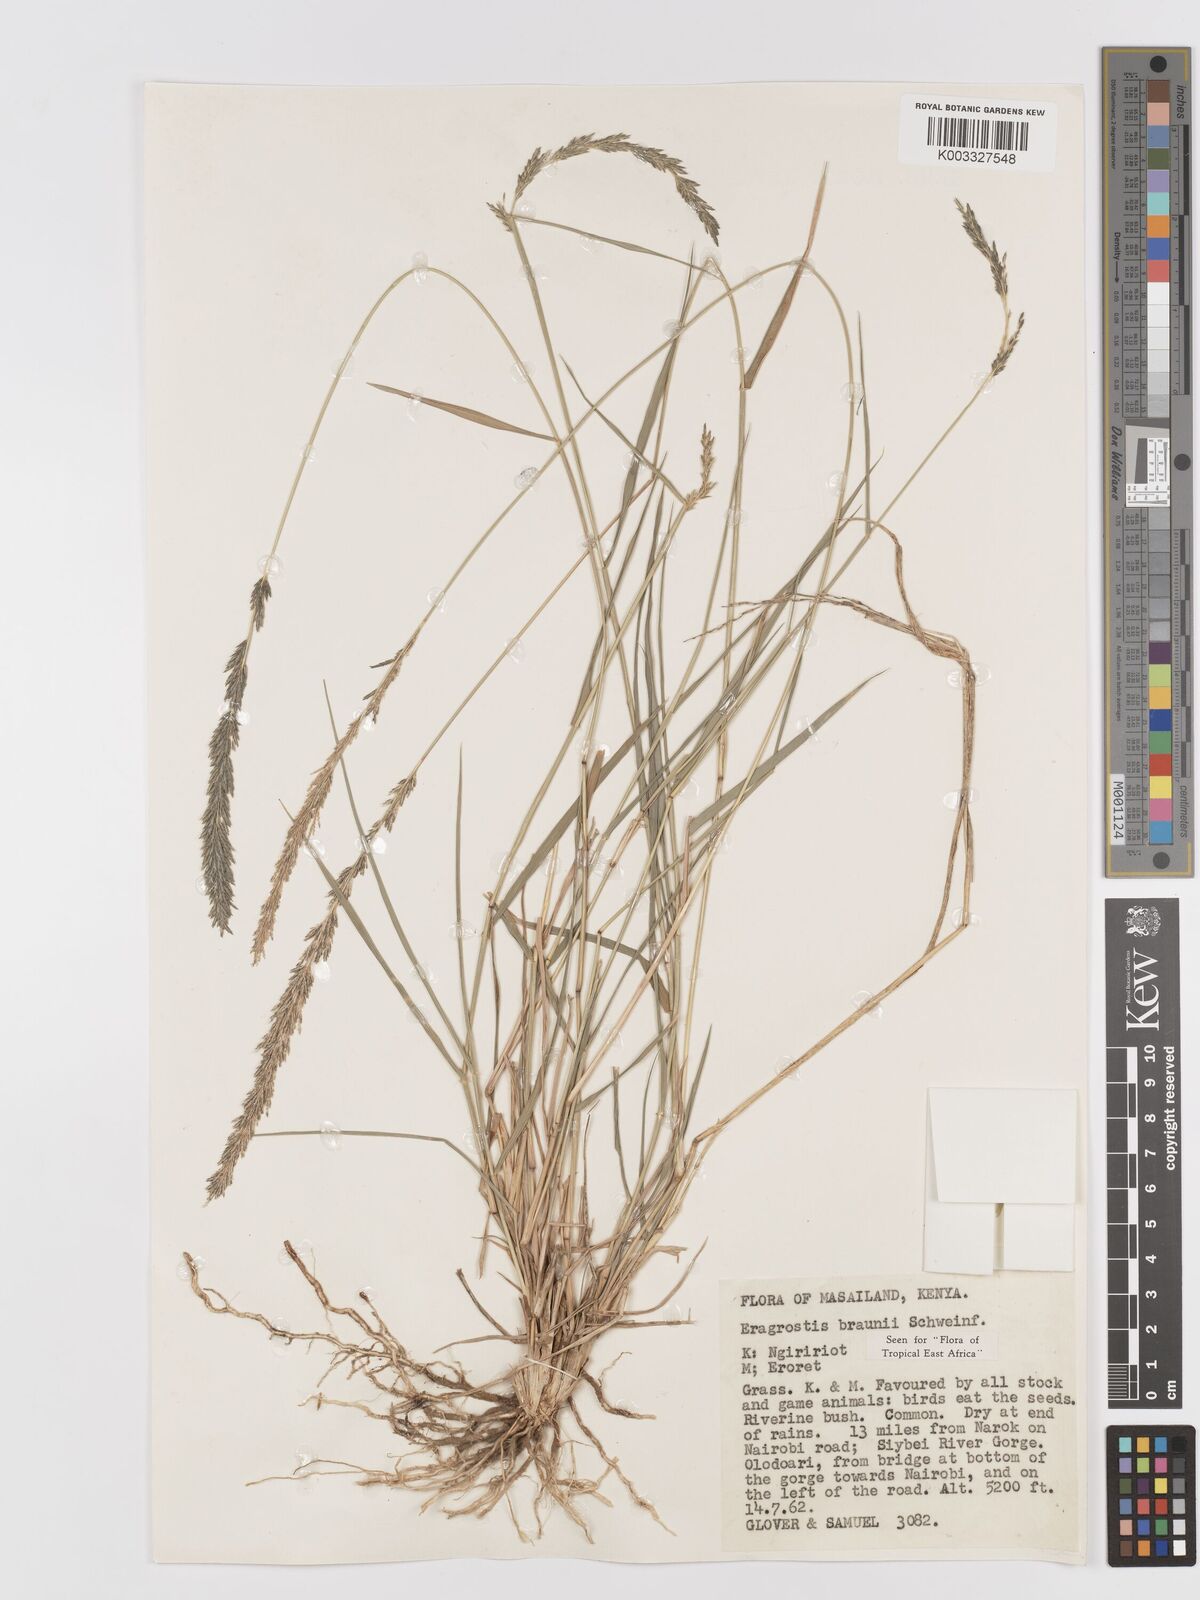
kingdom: Plantae
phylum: Tracheophyta
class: Liliopsida
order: Poales
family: Poaceae
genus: Eragrostis
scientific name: Eragrostis braunii
